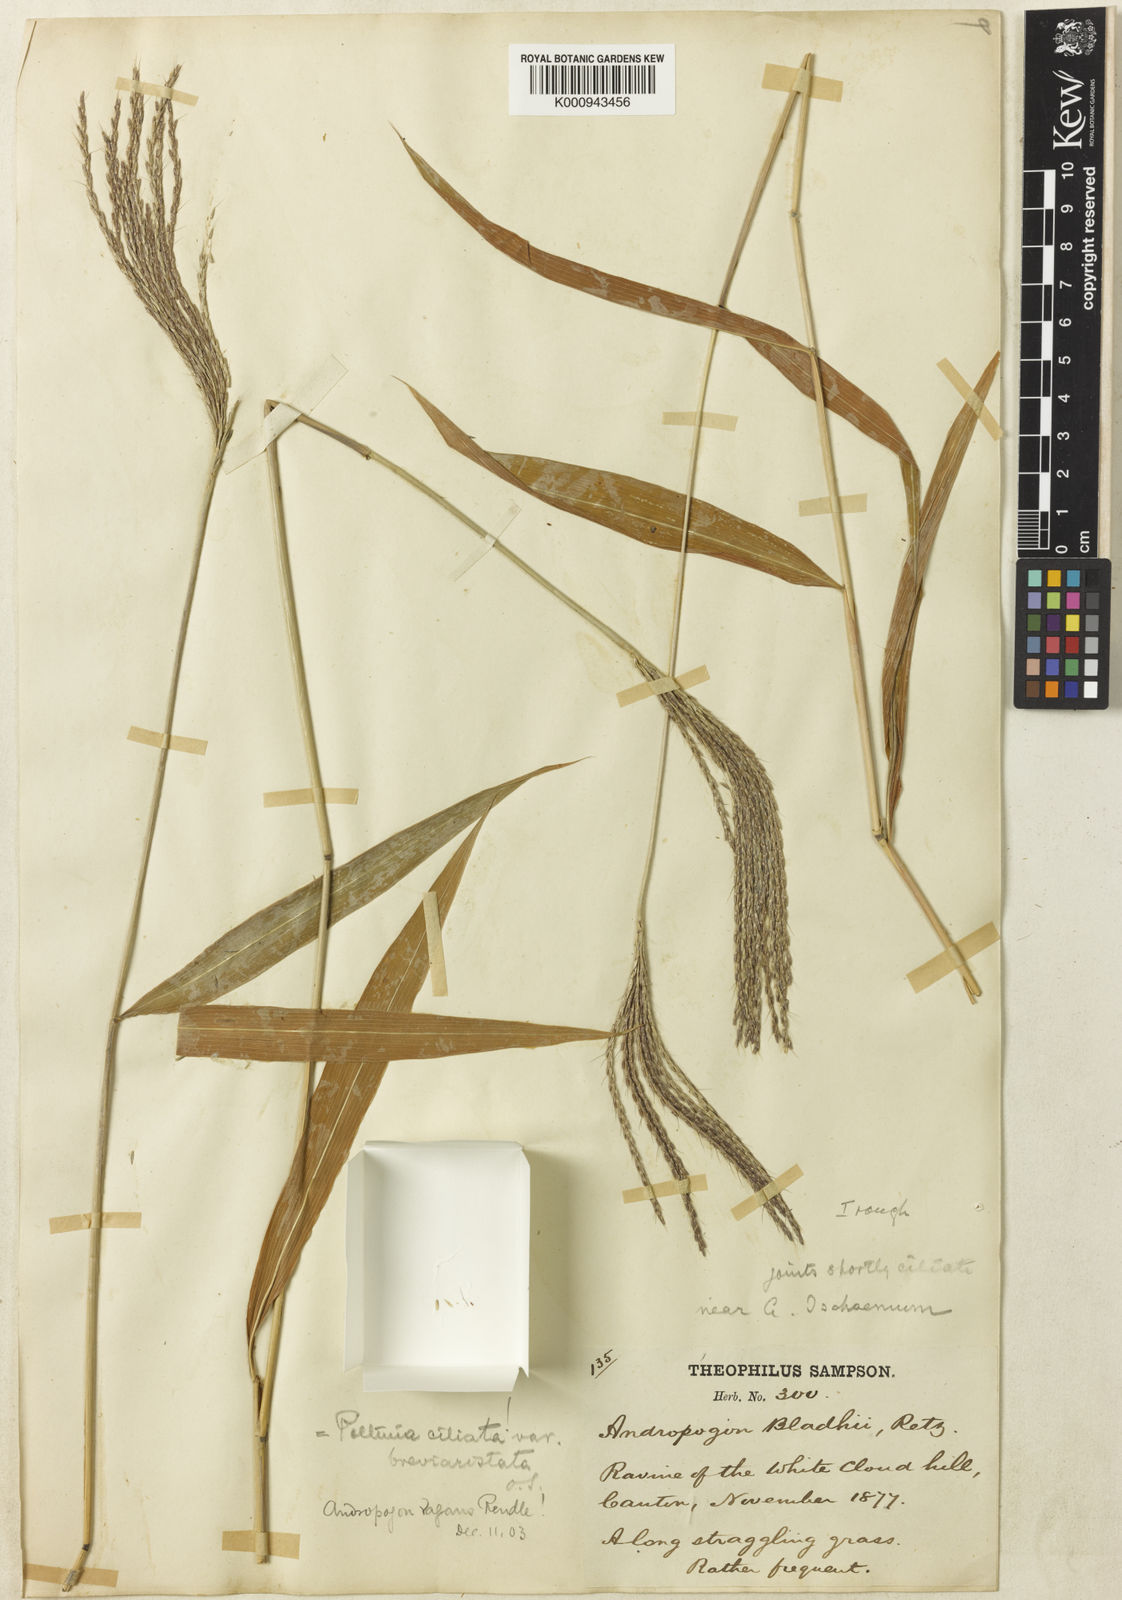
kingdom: Plantae
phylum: Tracheophyta
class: Liliopsida
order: Poales
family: Poaceae
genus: Microstegium
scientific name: Microstegium fasciculatum
